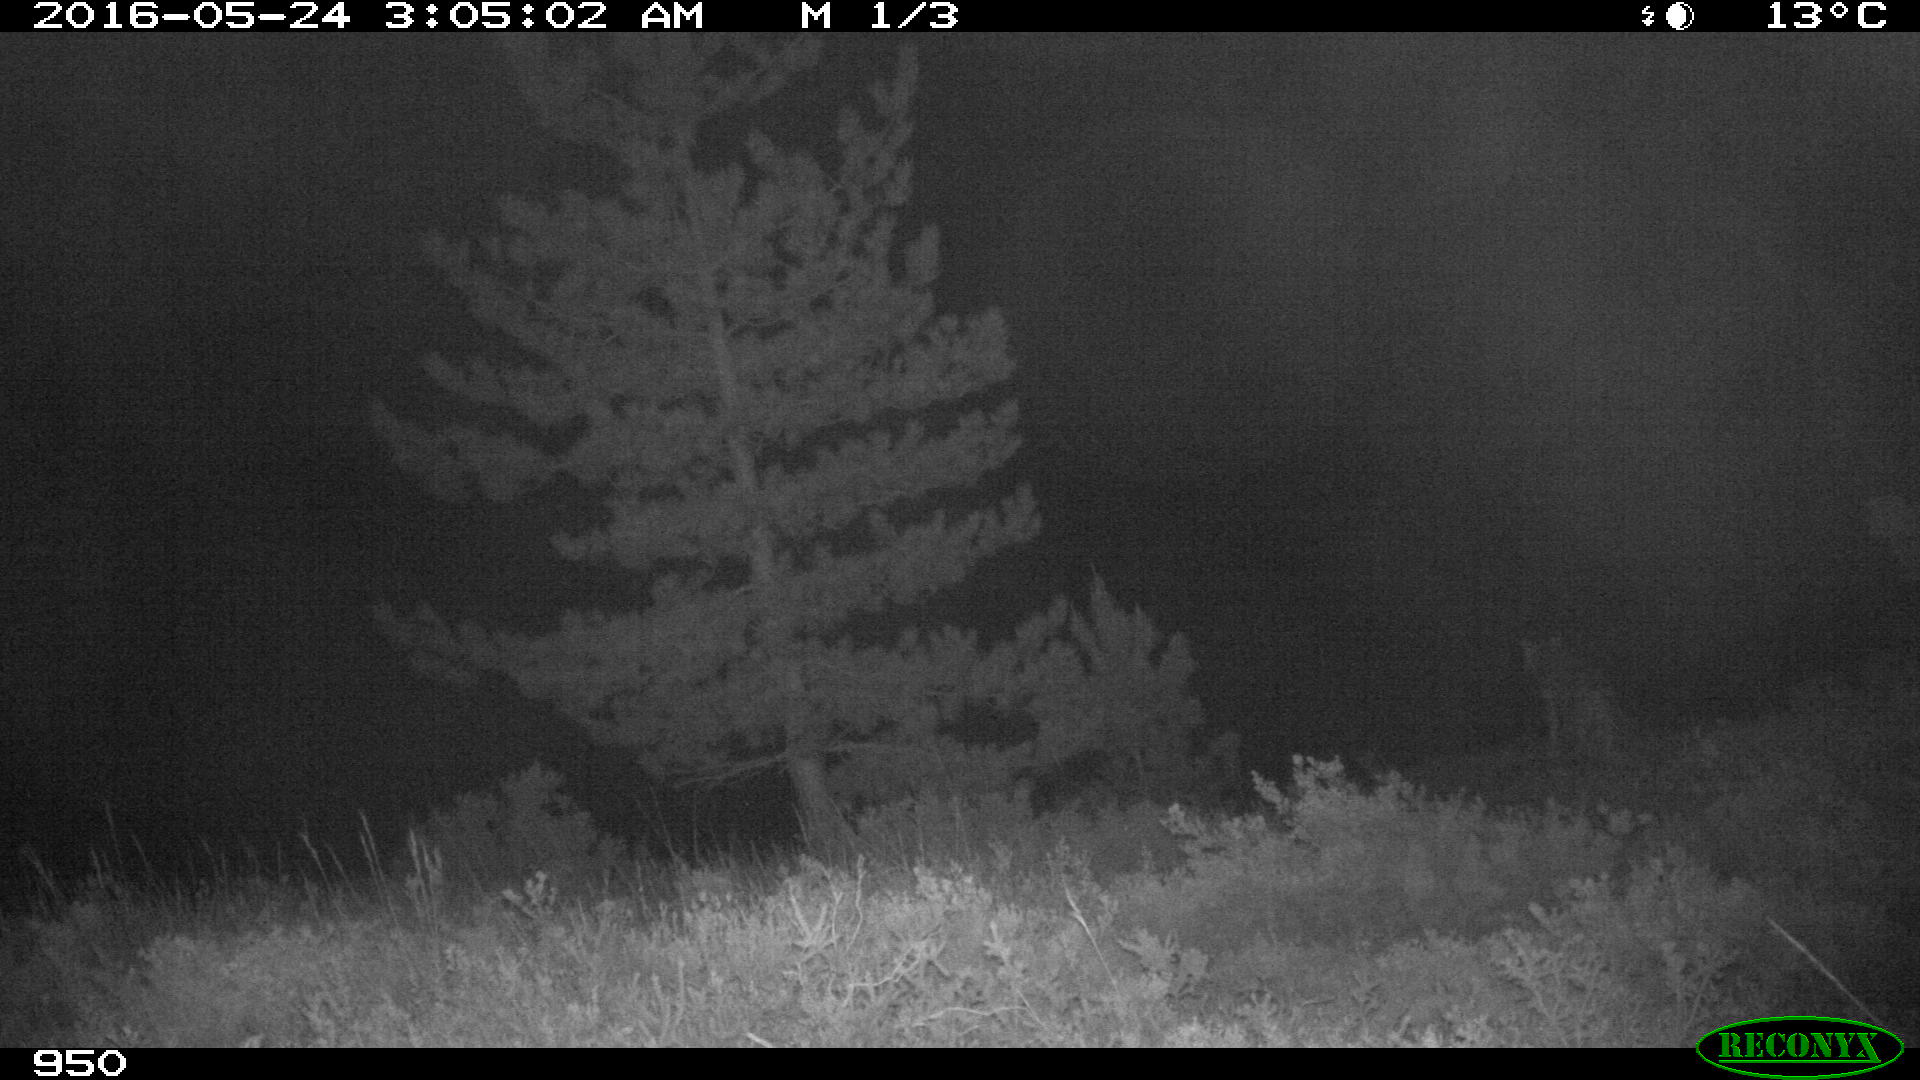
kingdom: Animalia
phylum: Chordata
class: Mammalia
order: Carnivora
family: Canidae
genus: Canis
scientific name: Canis lupus
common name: Gray wolf
